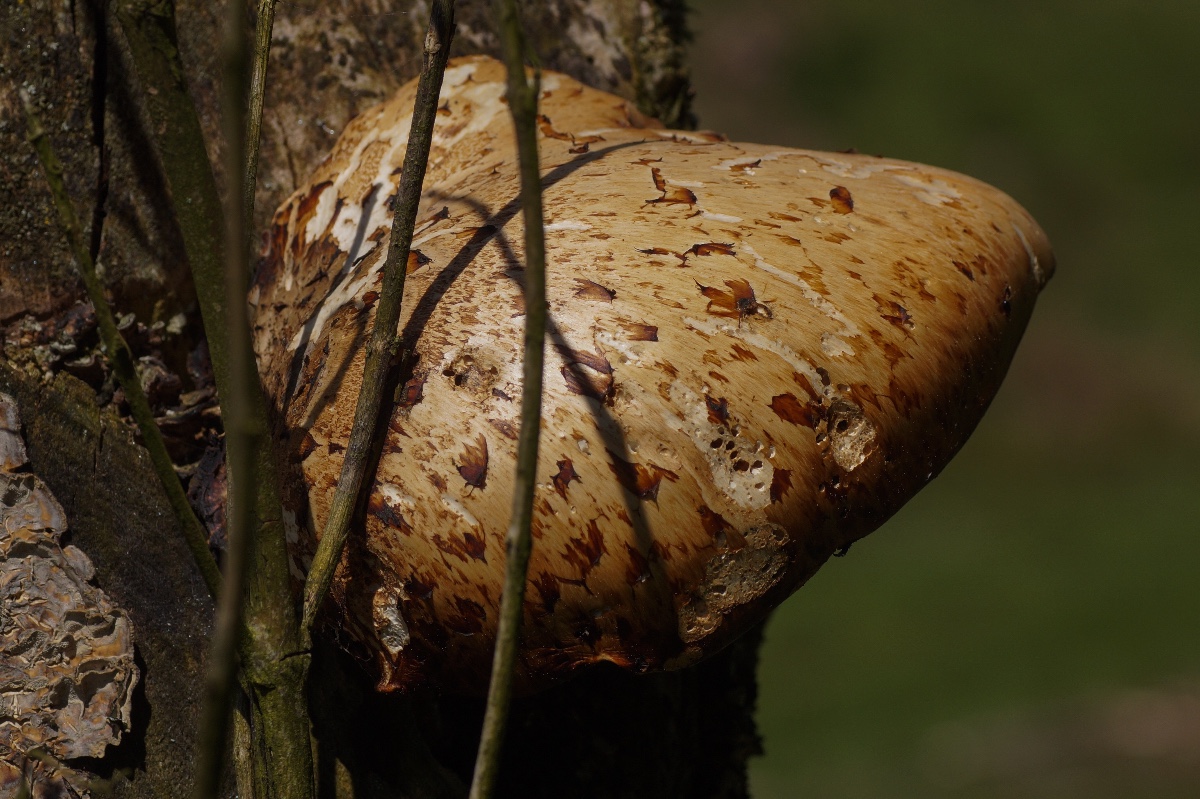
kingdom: Fungi
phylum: Basidiomycota
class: Agaricomycetes
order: Polyporales
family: Polyporaceae
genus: Cerioporus
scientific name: Cerioporus squamosus
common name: skællet stilkporesvamp
